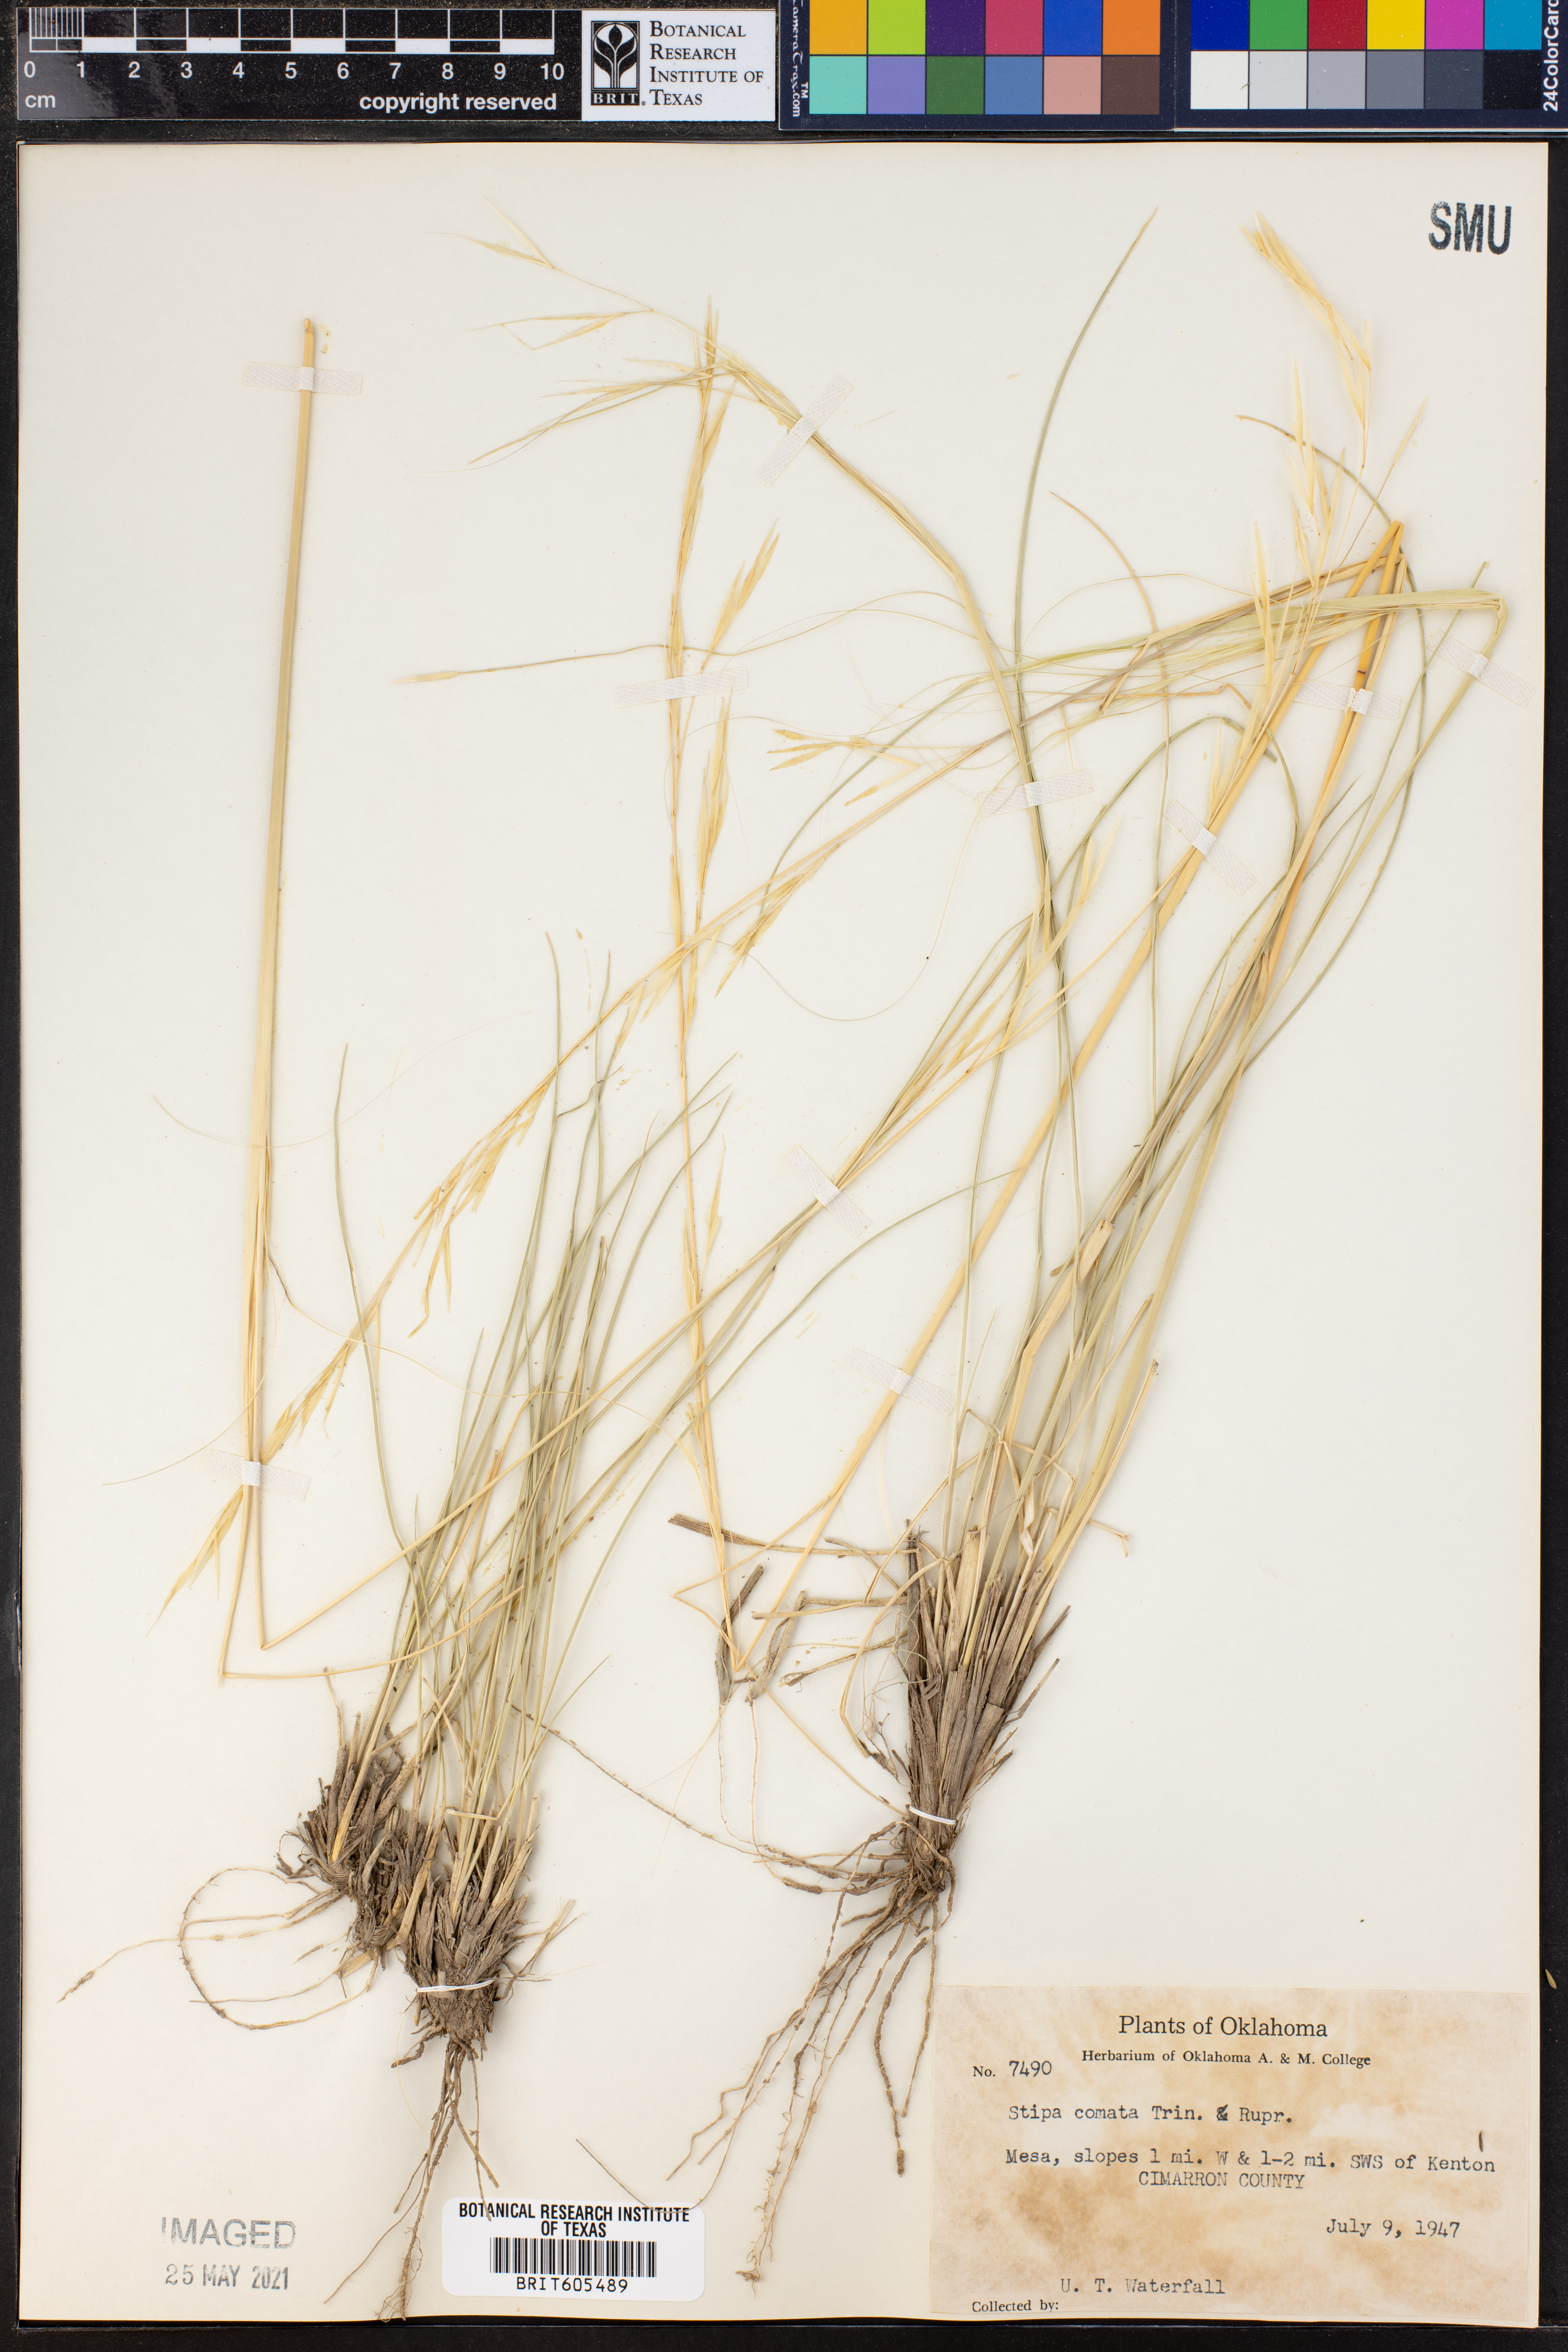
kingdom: Plantae
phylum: Tracheophyta
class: Liliopsida
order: Poales
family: Poaceae
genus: Hesperostipa
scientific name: Hesperostipa comata
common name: Needle-and-thread grass
